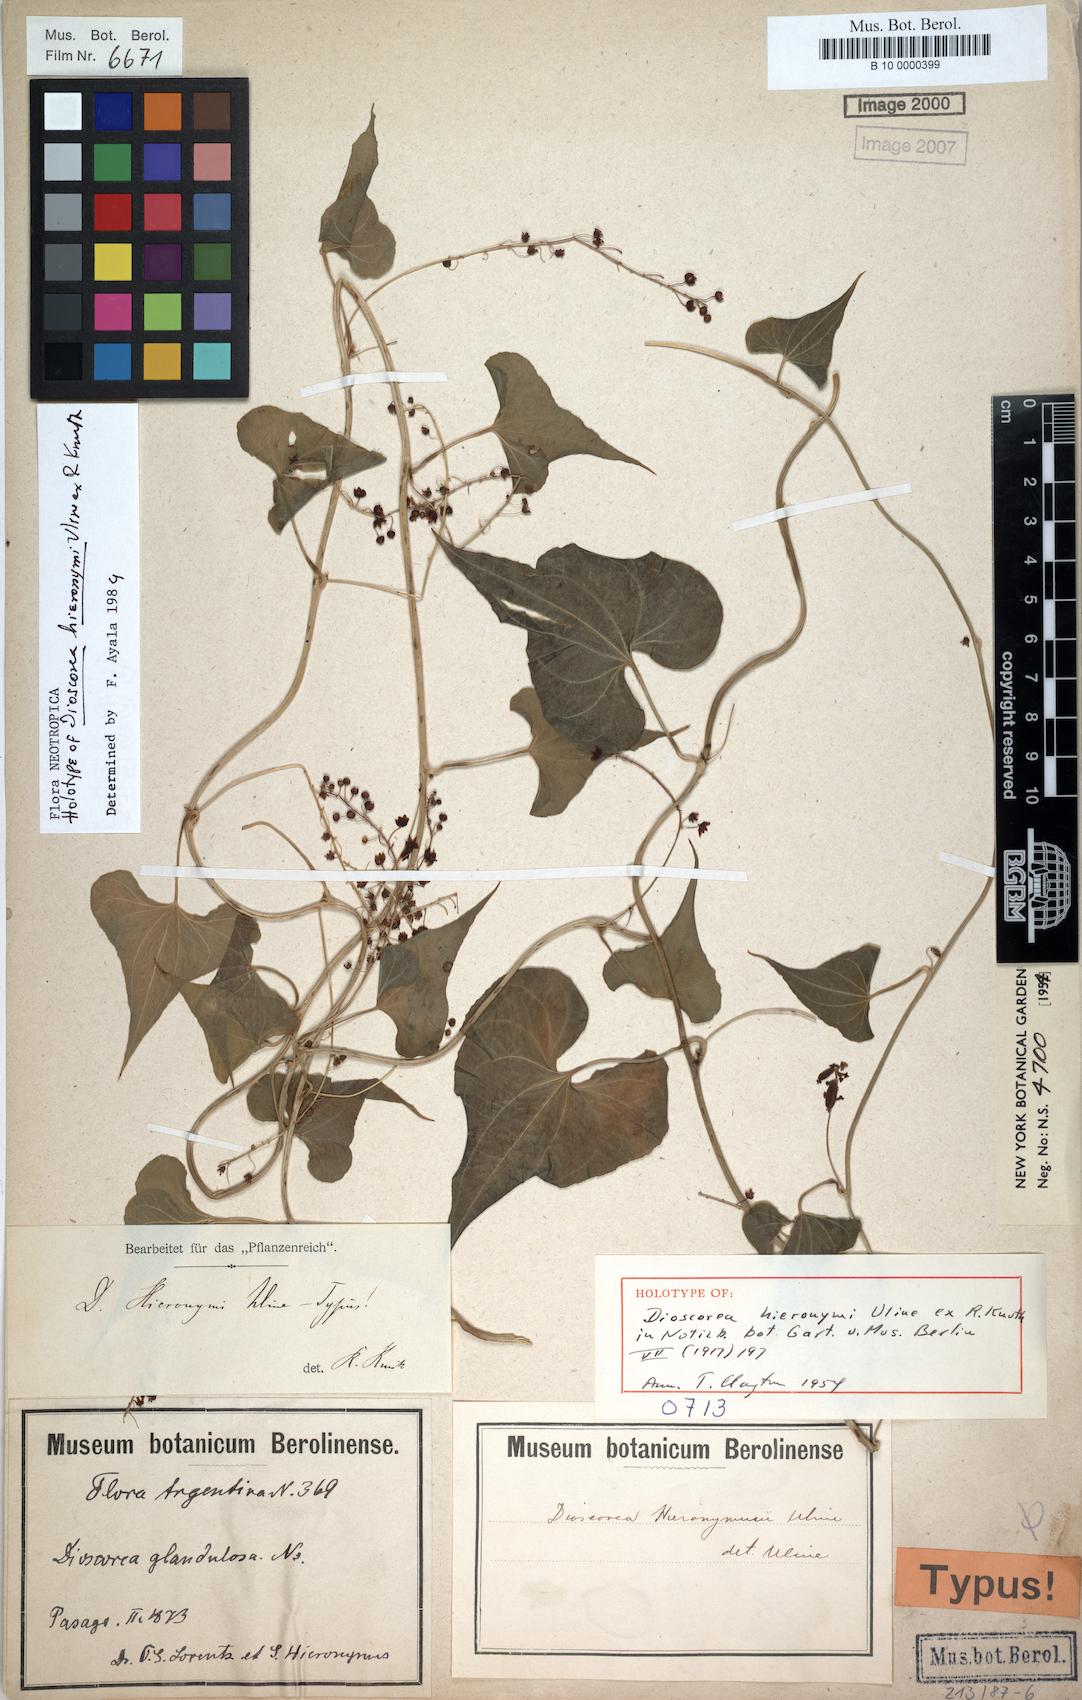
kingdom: Plantae
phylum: Tracheophyta
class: Liliopsida
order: Dioscoreales
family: Dioscoreaceae
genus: Dioscorea
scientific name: Dioscorea hieronymi
